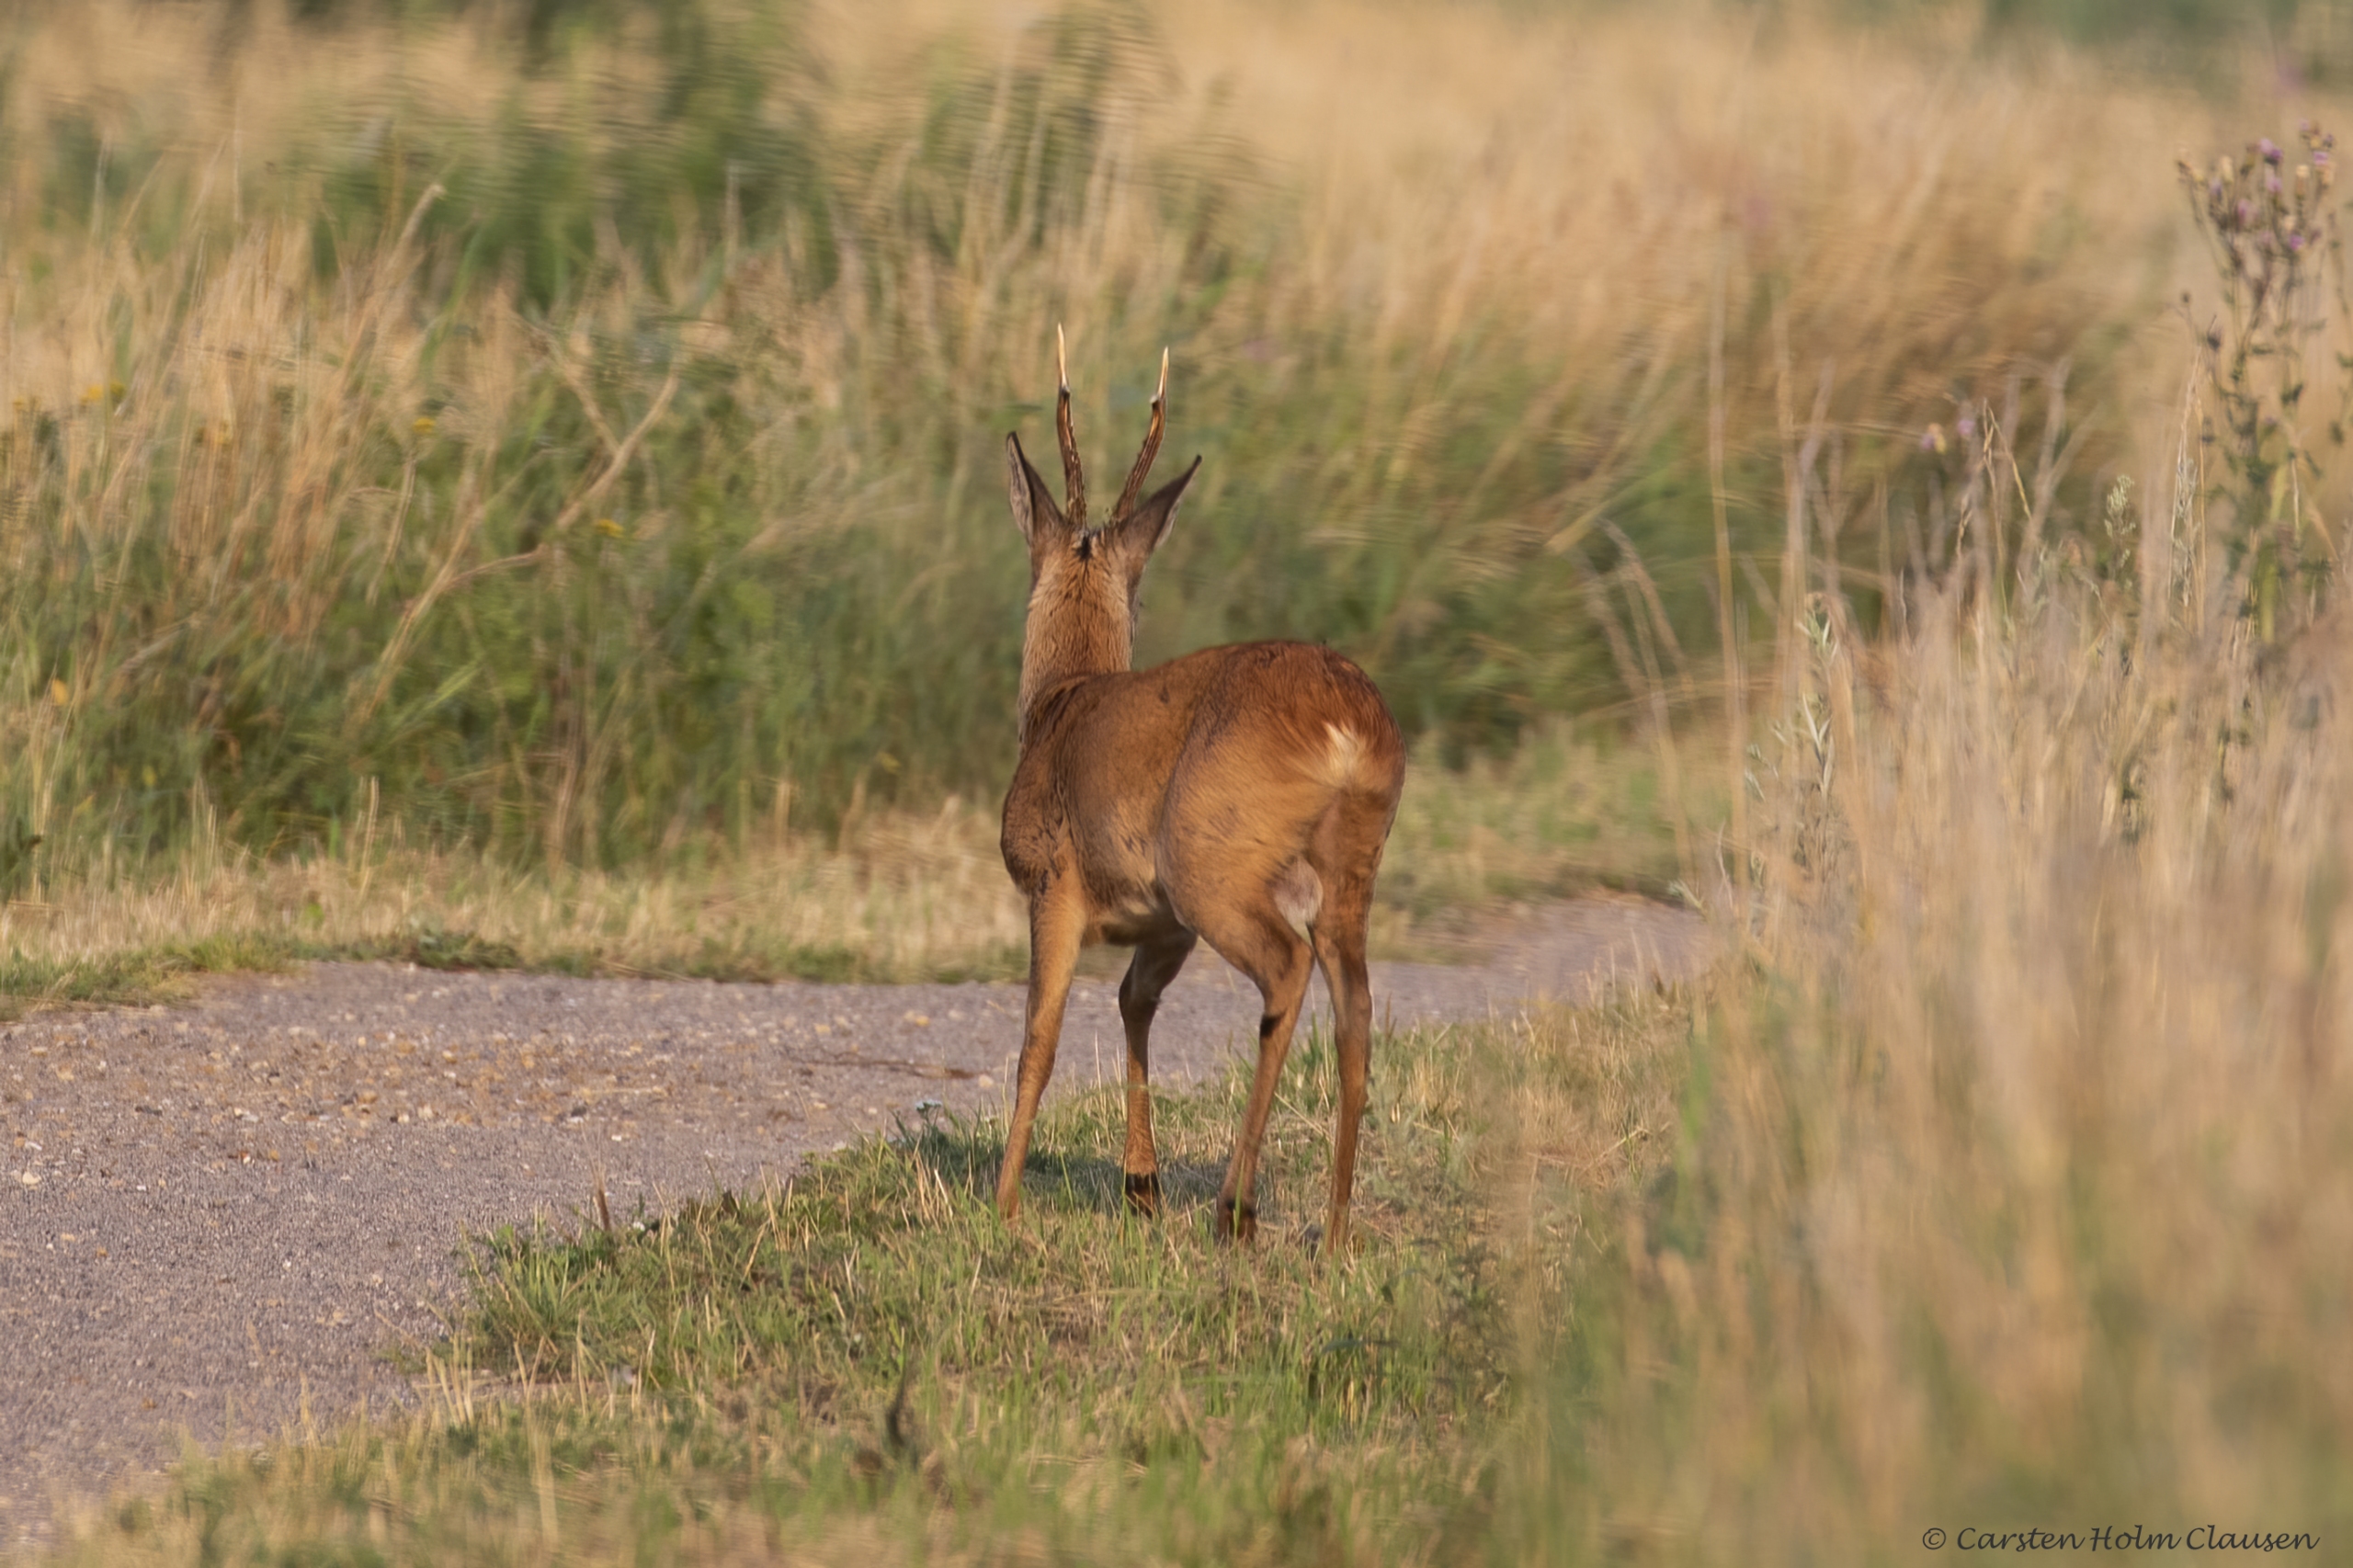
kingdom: Animalia
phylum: Chordata
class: Mammalia
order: Artiodactyla
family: Cervidae
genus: Capreolus
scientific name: Capreolus capreolus
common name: Rådyr
